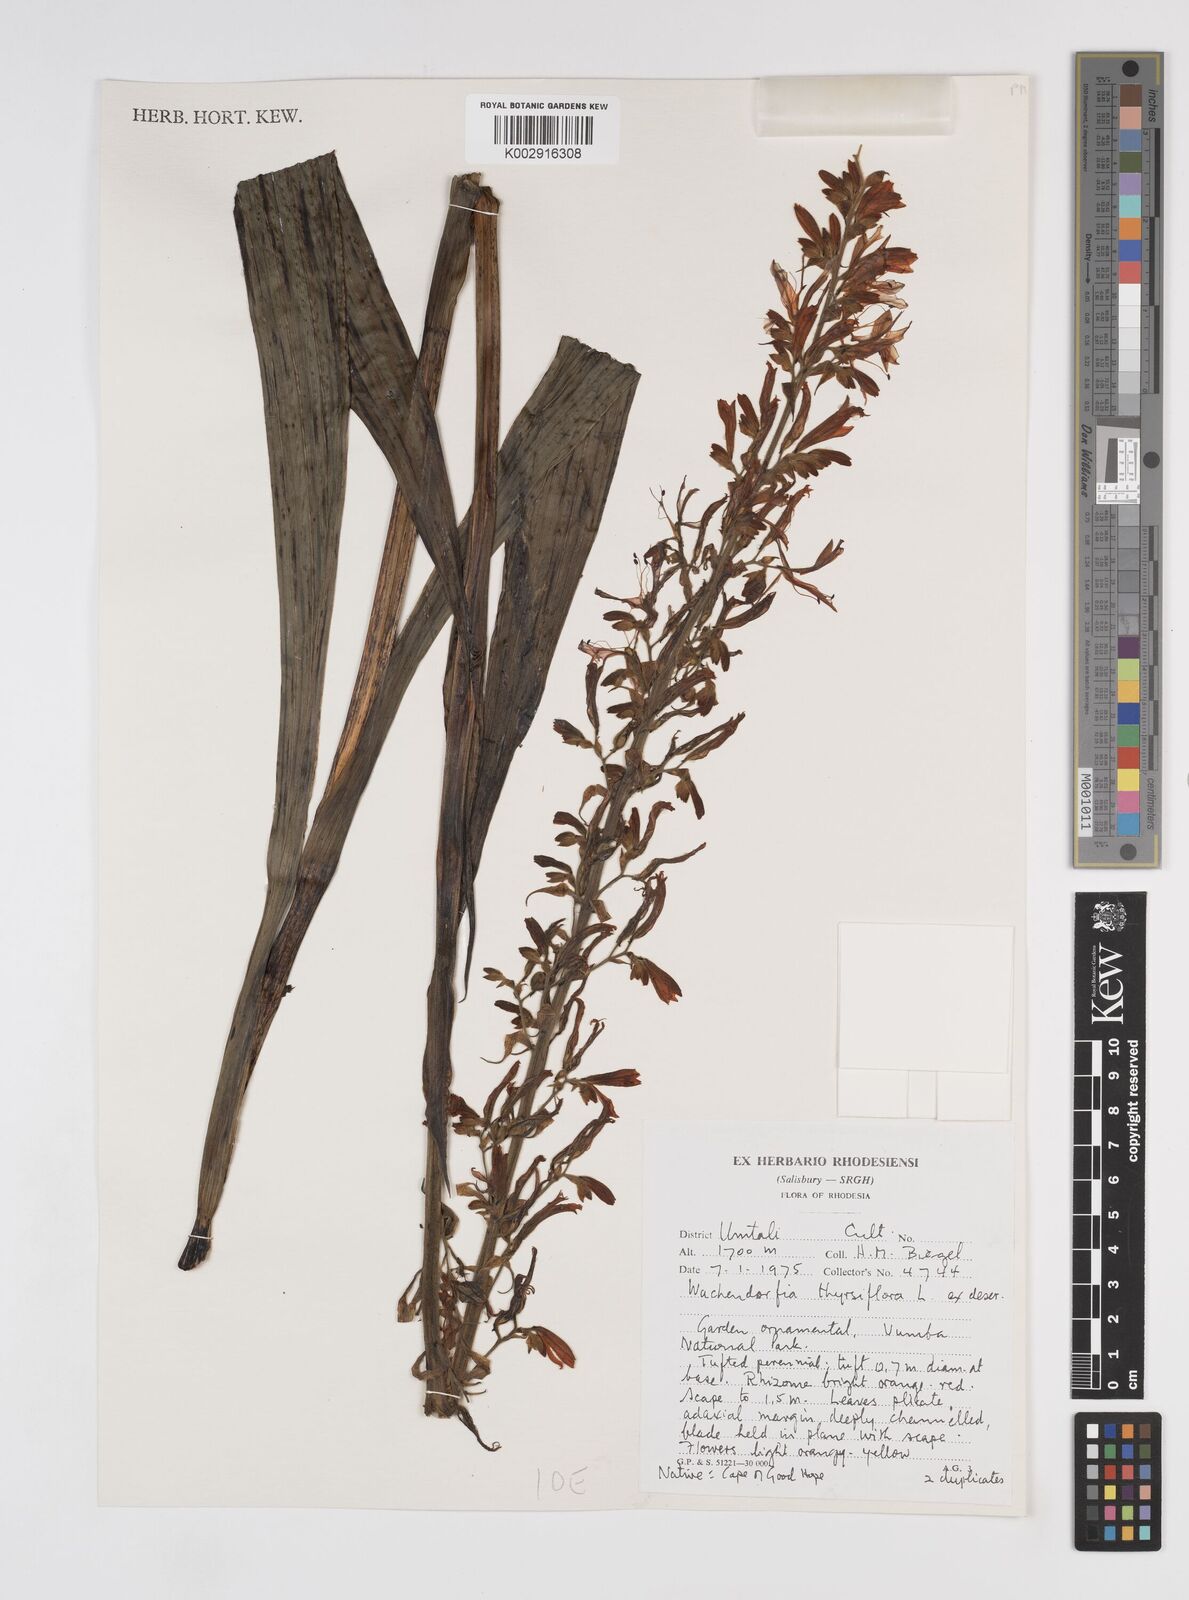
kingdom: Plantae
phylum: Tracheophyta
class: Liliopsida
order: Commelinales
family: Haemodoraceae
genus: Wachendorfia
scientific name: Wachendorfia thyrsiflora
